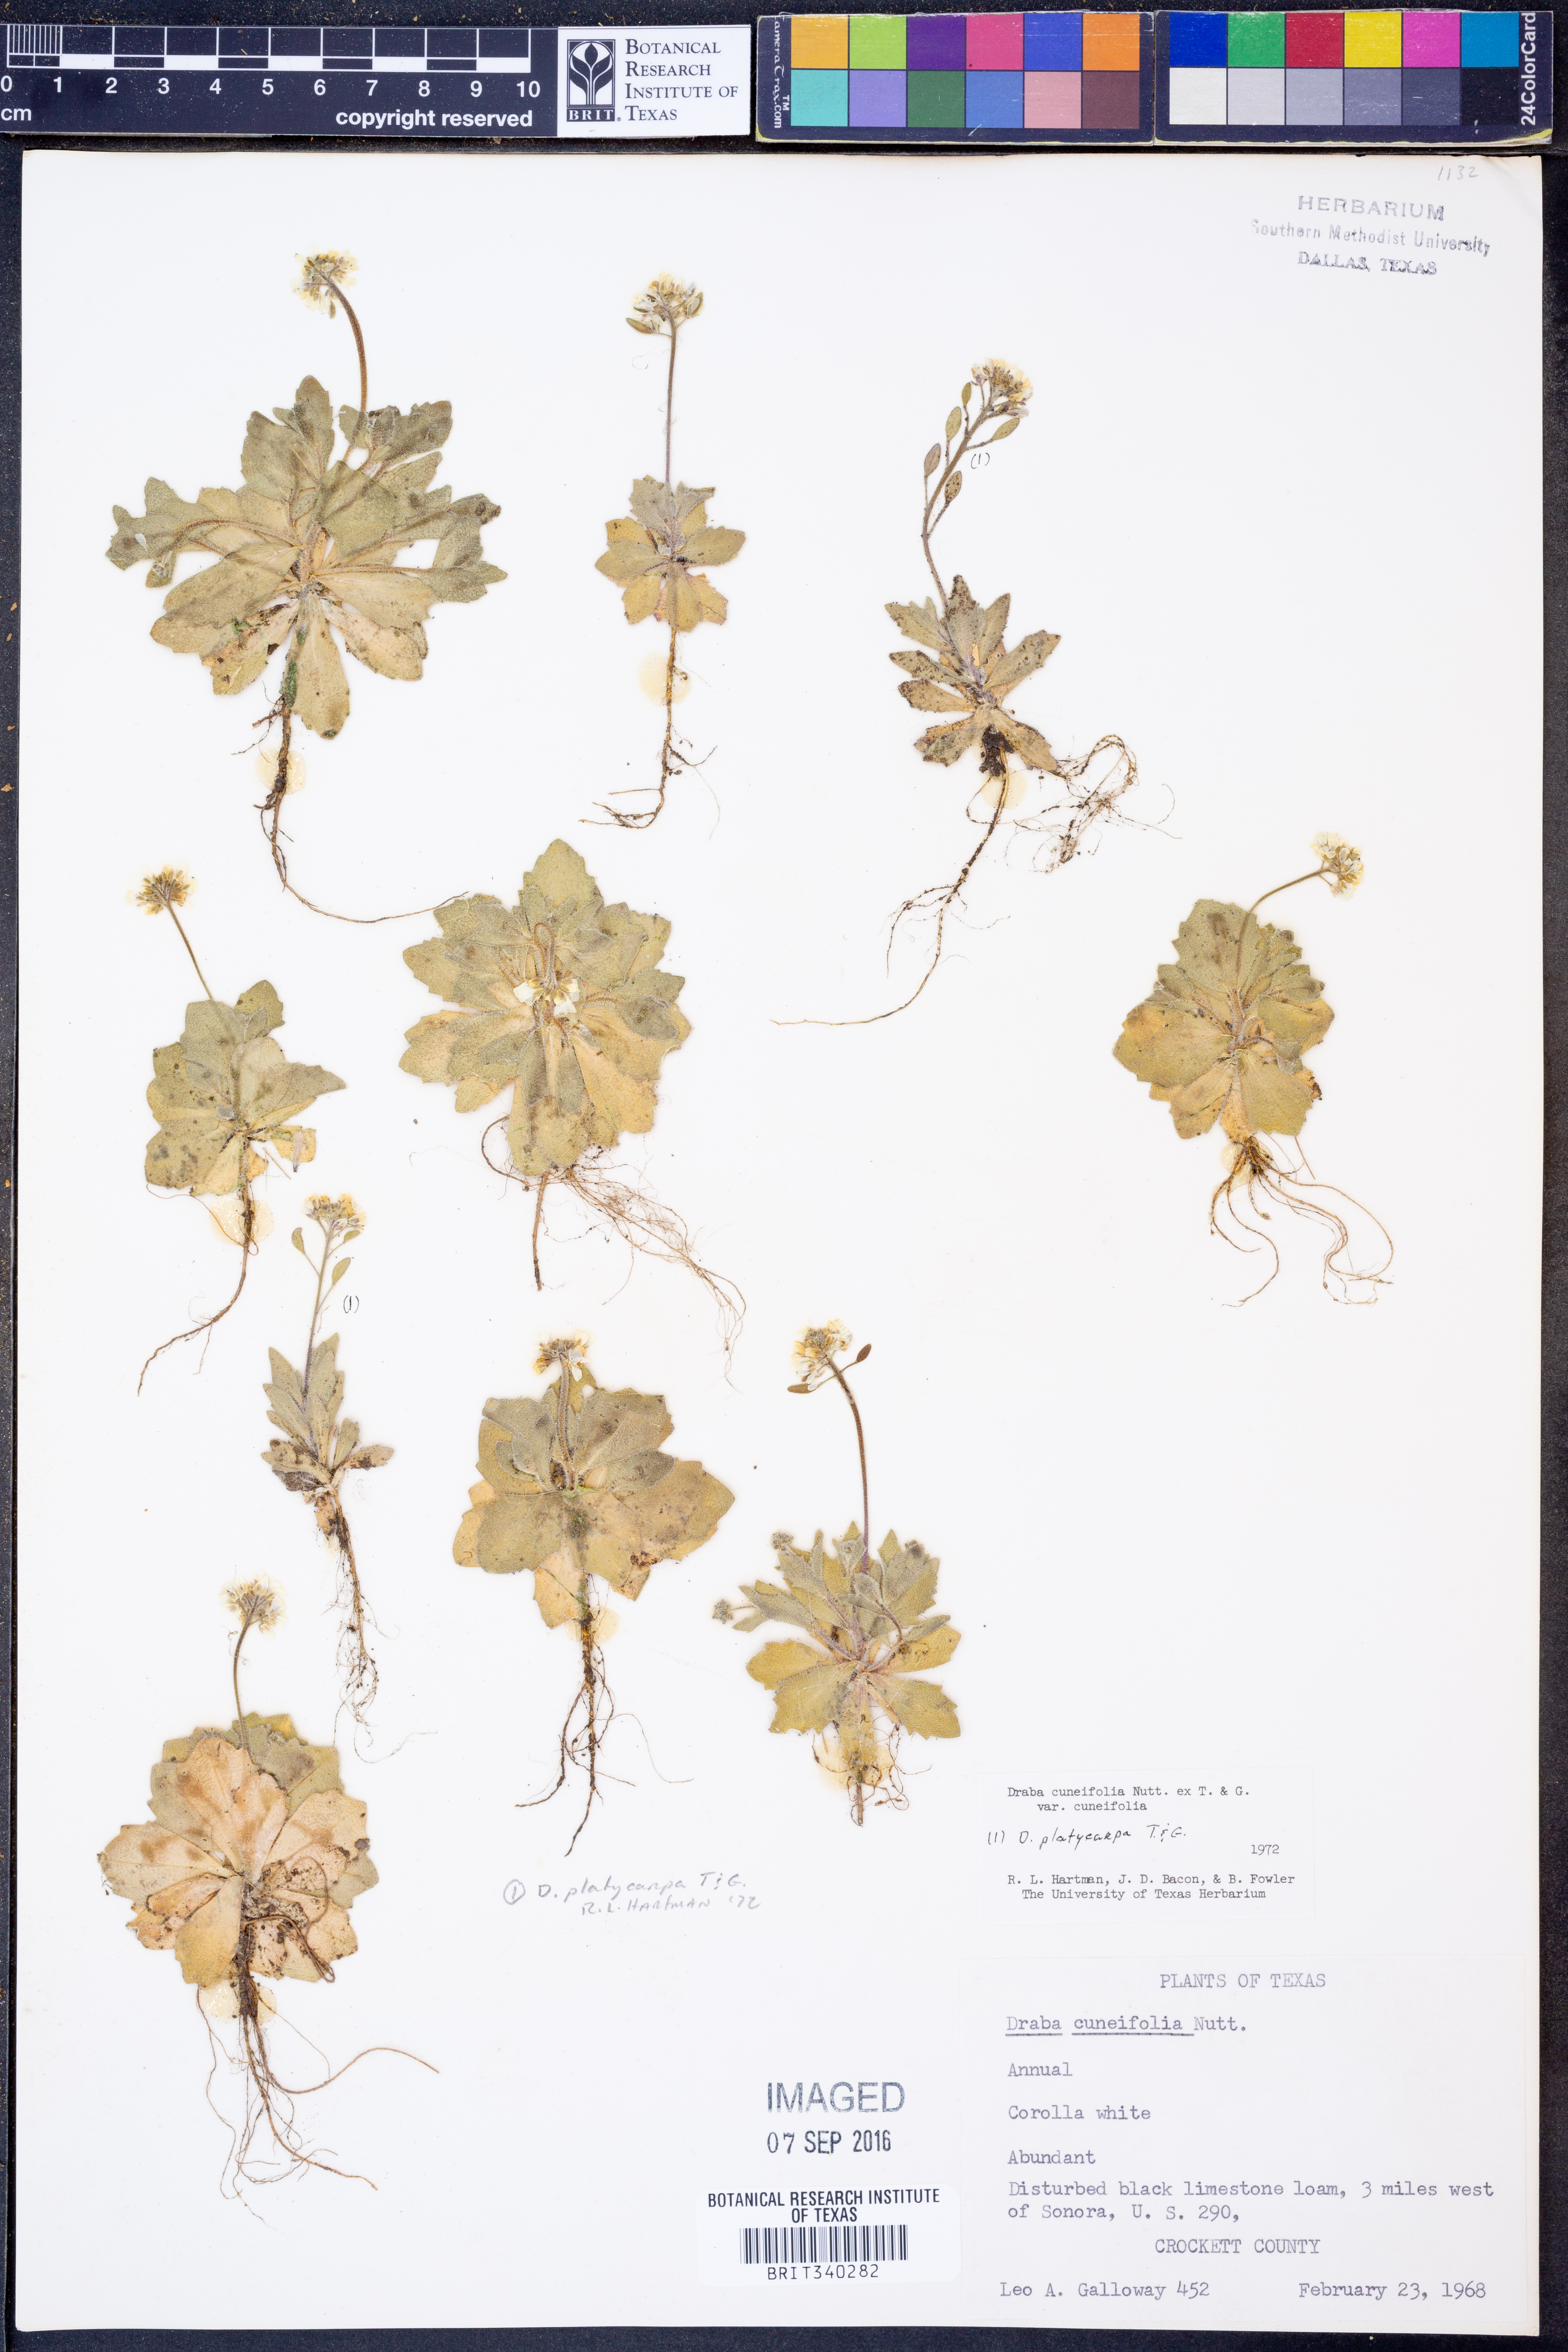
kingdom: Plantae
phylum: Tracheophyta
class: Magnoliopsida
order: Brassicales
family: Brassicaceae
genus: Tomostima
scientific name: Tomostima cuneifolia
